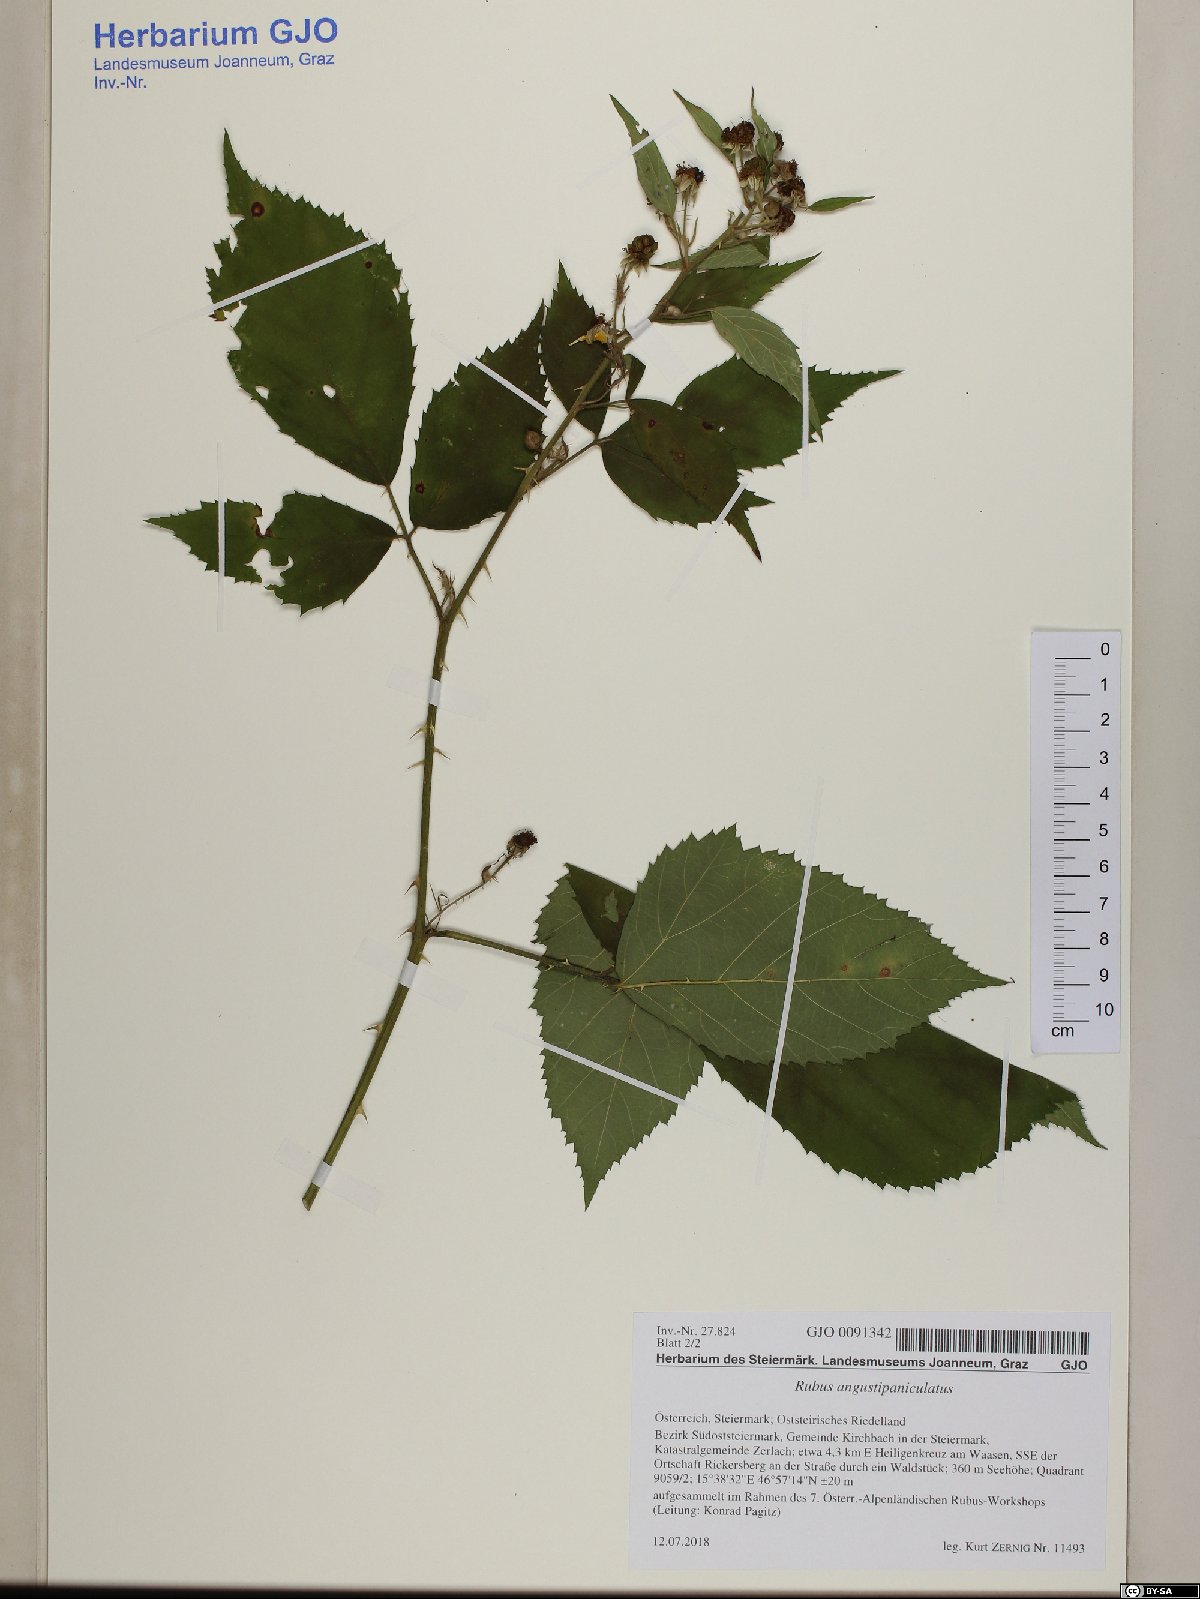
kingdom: Plantae
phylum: Tracheophyta
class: Magnoliopsida
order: Rosales
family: Rosaceae
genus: Rubus
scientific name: Rubus angustipaniculatus
